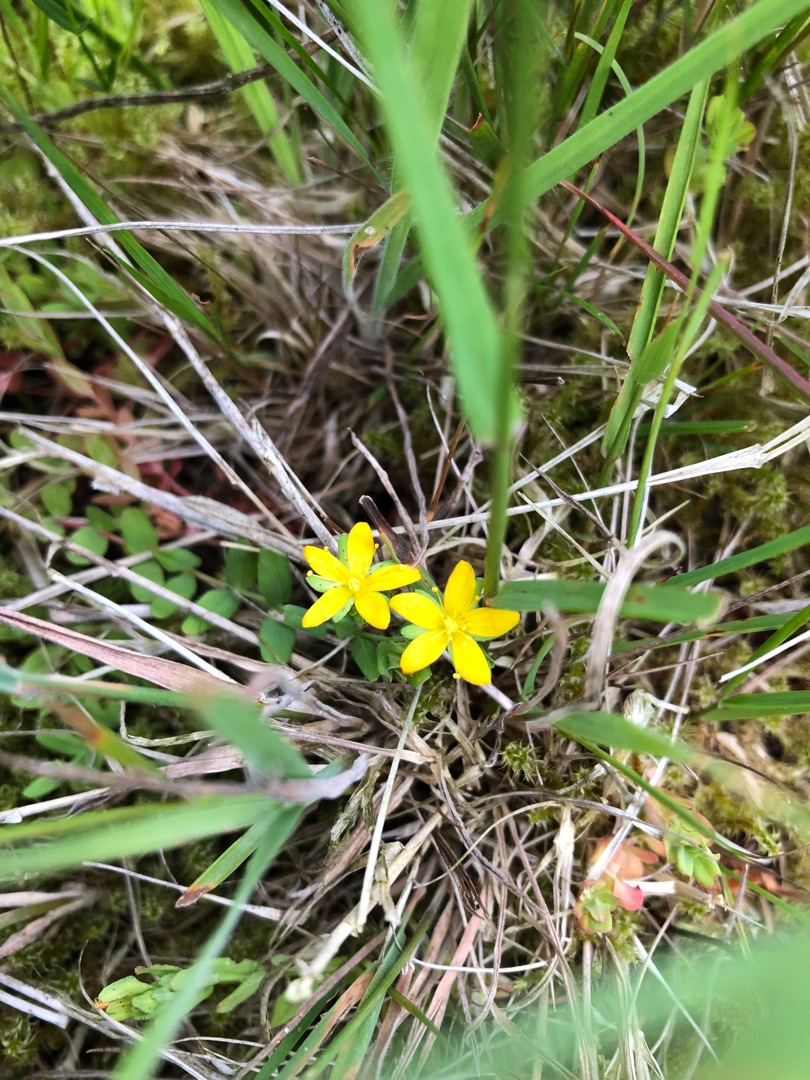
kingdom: Plantae
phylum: Tracheophyta
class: Magnoliopsida
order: Malpighiales
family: Hypericaceae
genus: Hypericum
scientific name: Hypericum humifusum
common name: Dværg-perikon
